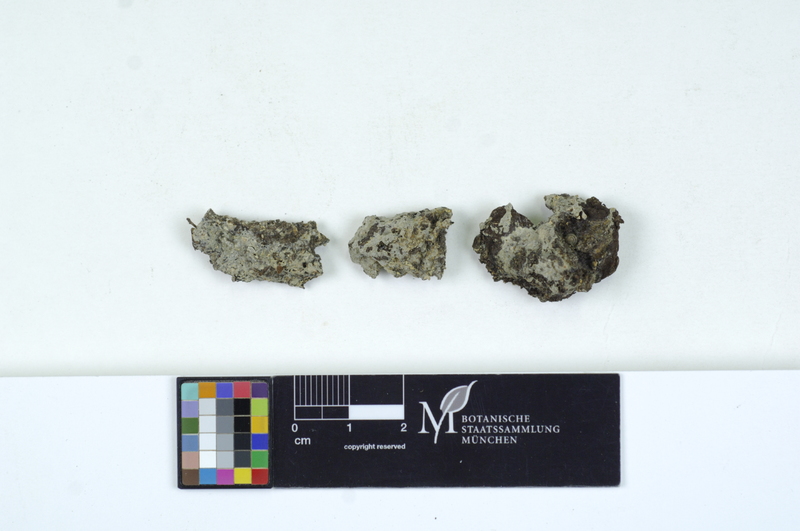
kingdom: Fungi
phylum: Basidiomycota
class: Agaricomycetes
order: Sebacinales
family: Sebacinaceae
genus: Sebacina
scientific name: Sebacina epigaea
